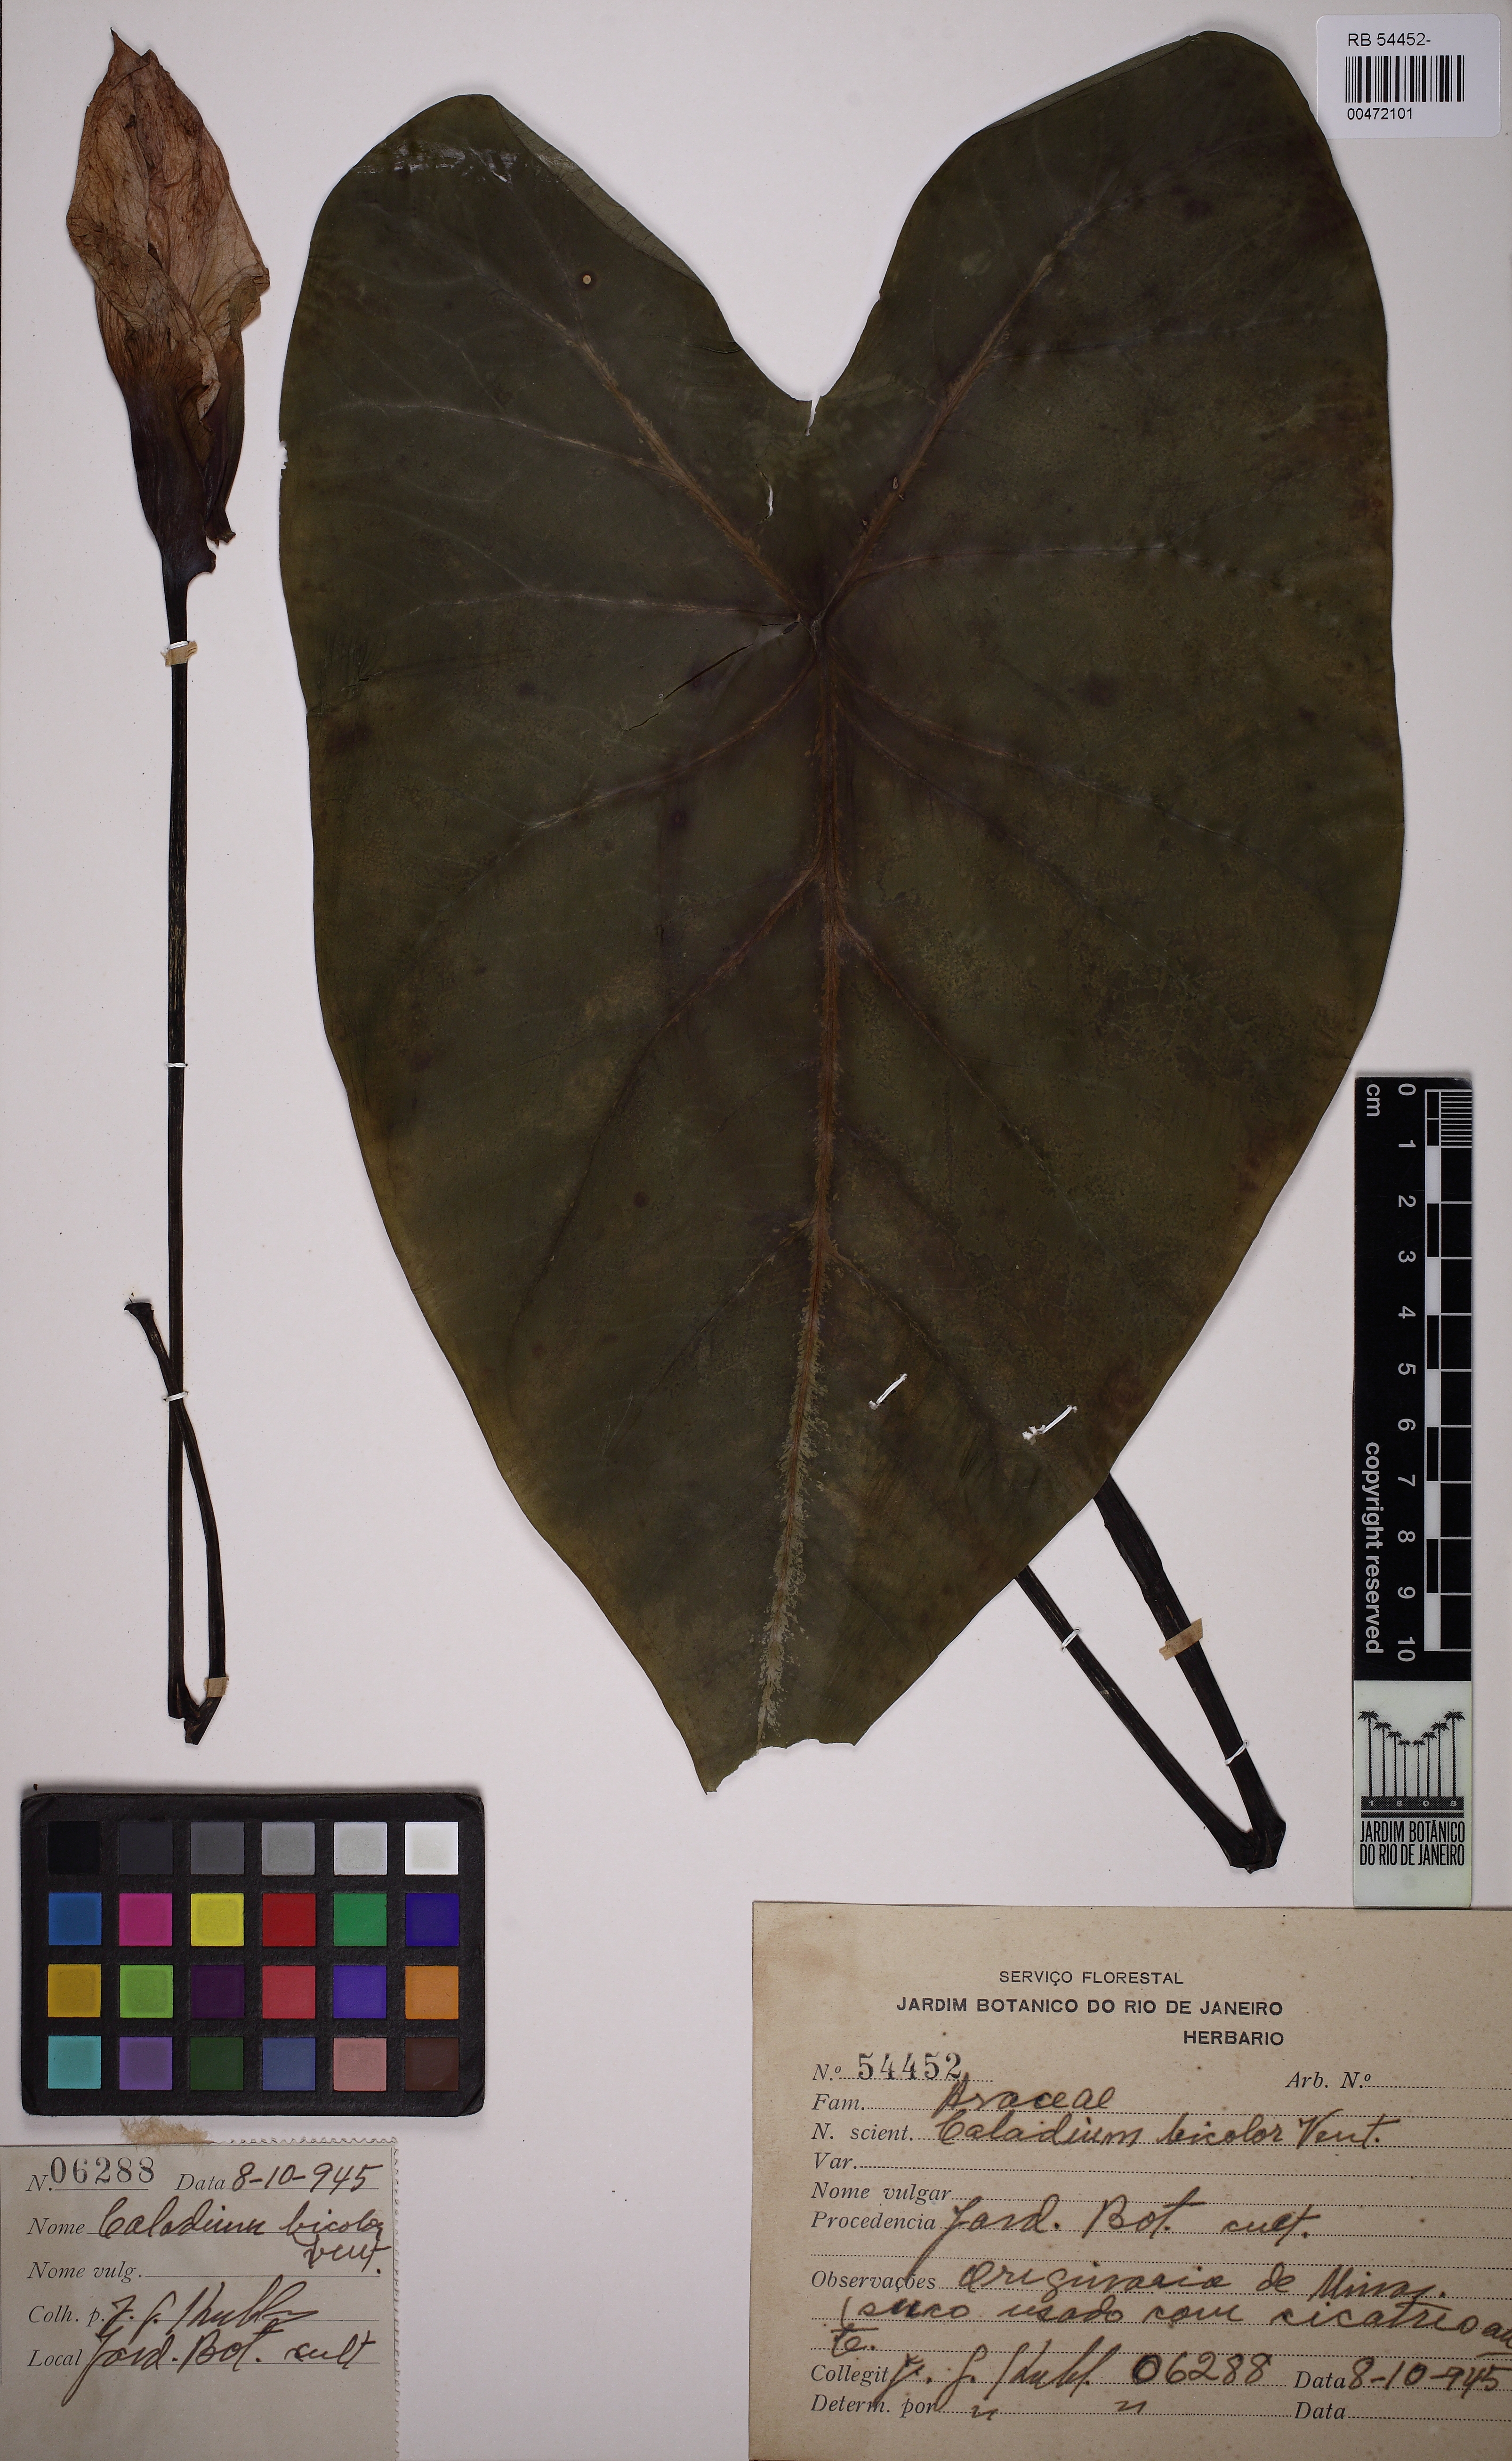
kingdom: Plantae
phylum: Tracheophyta
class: Liliopsida
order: Alismatales
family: Araceae
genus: Caladium
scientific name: Caladium bicolor
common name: Artist's pallet
